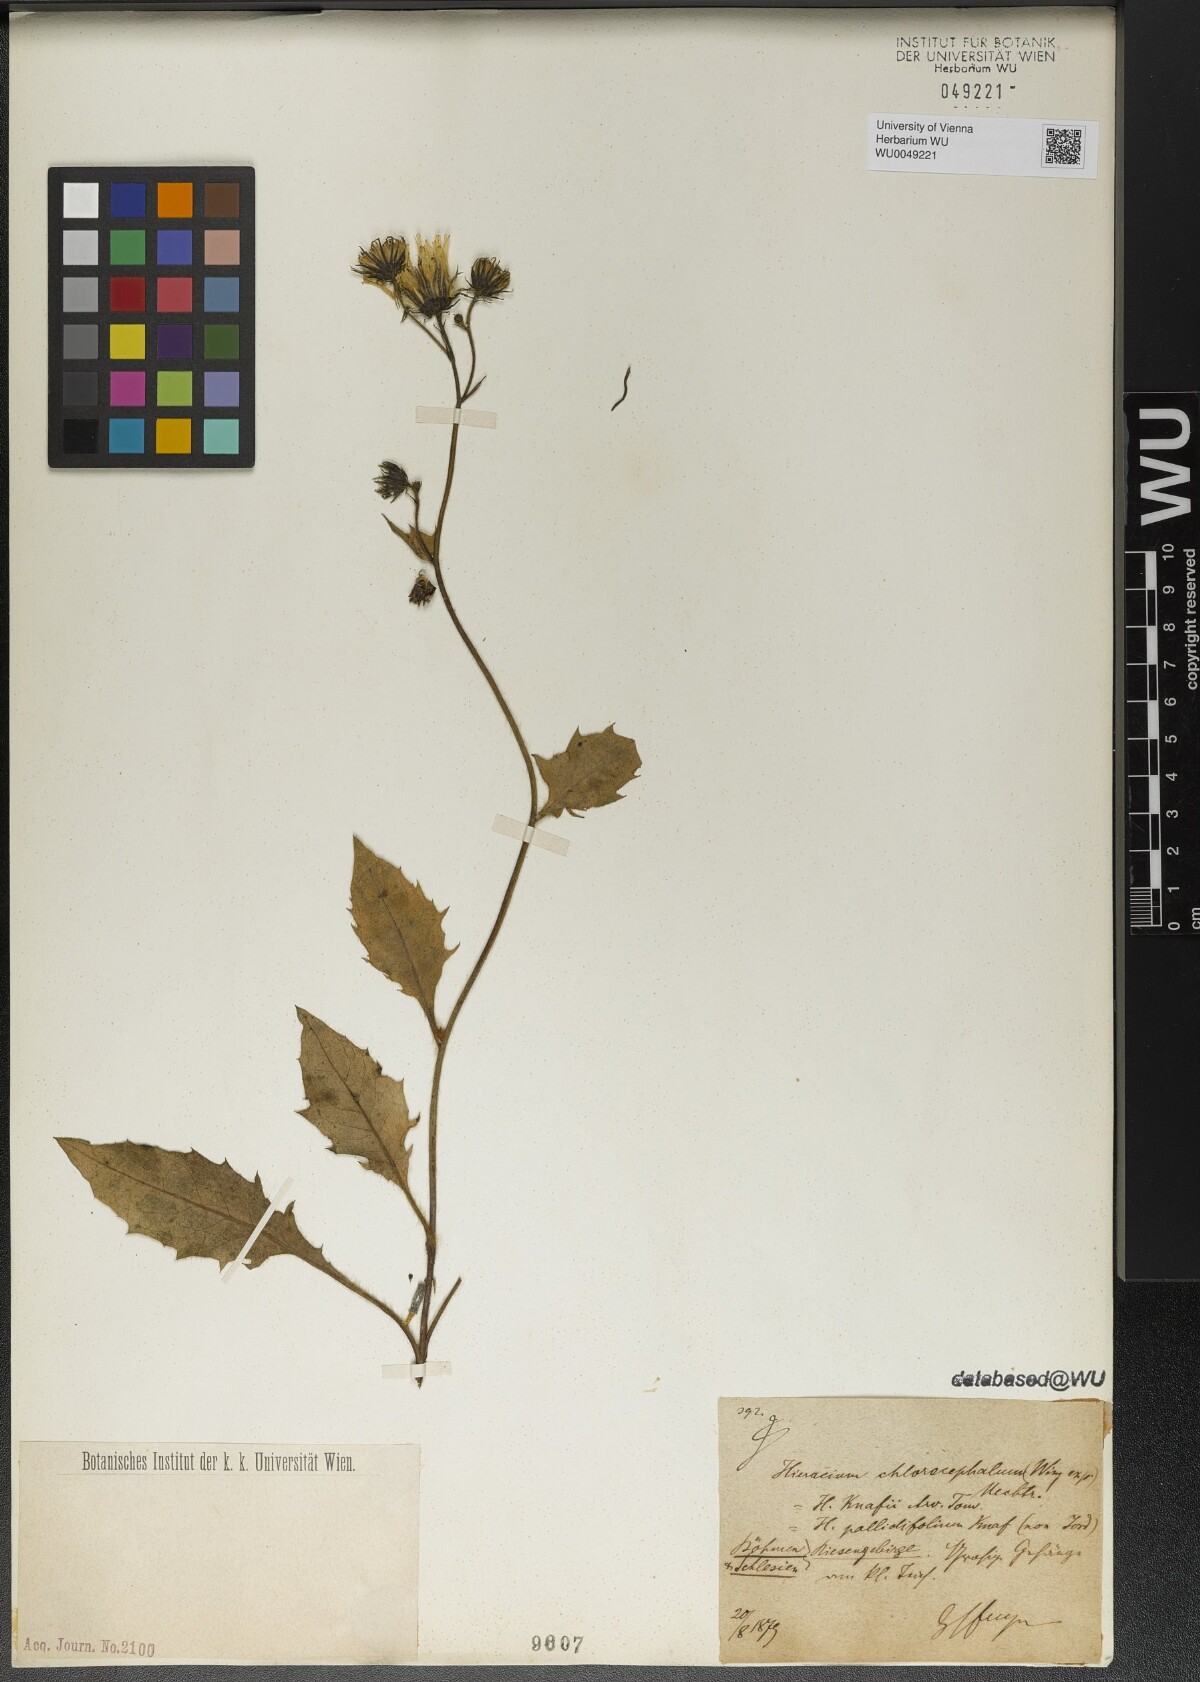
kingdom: Plantae
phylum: Tracheophyta
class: Magnoliopsida
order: Asterales
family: Asteraceae
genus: Hieracium
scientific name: Hieracium chlorocephalum
